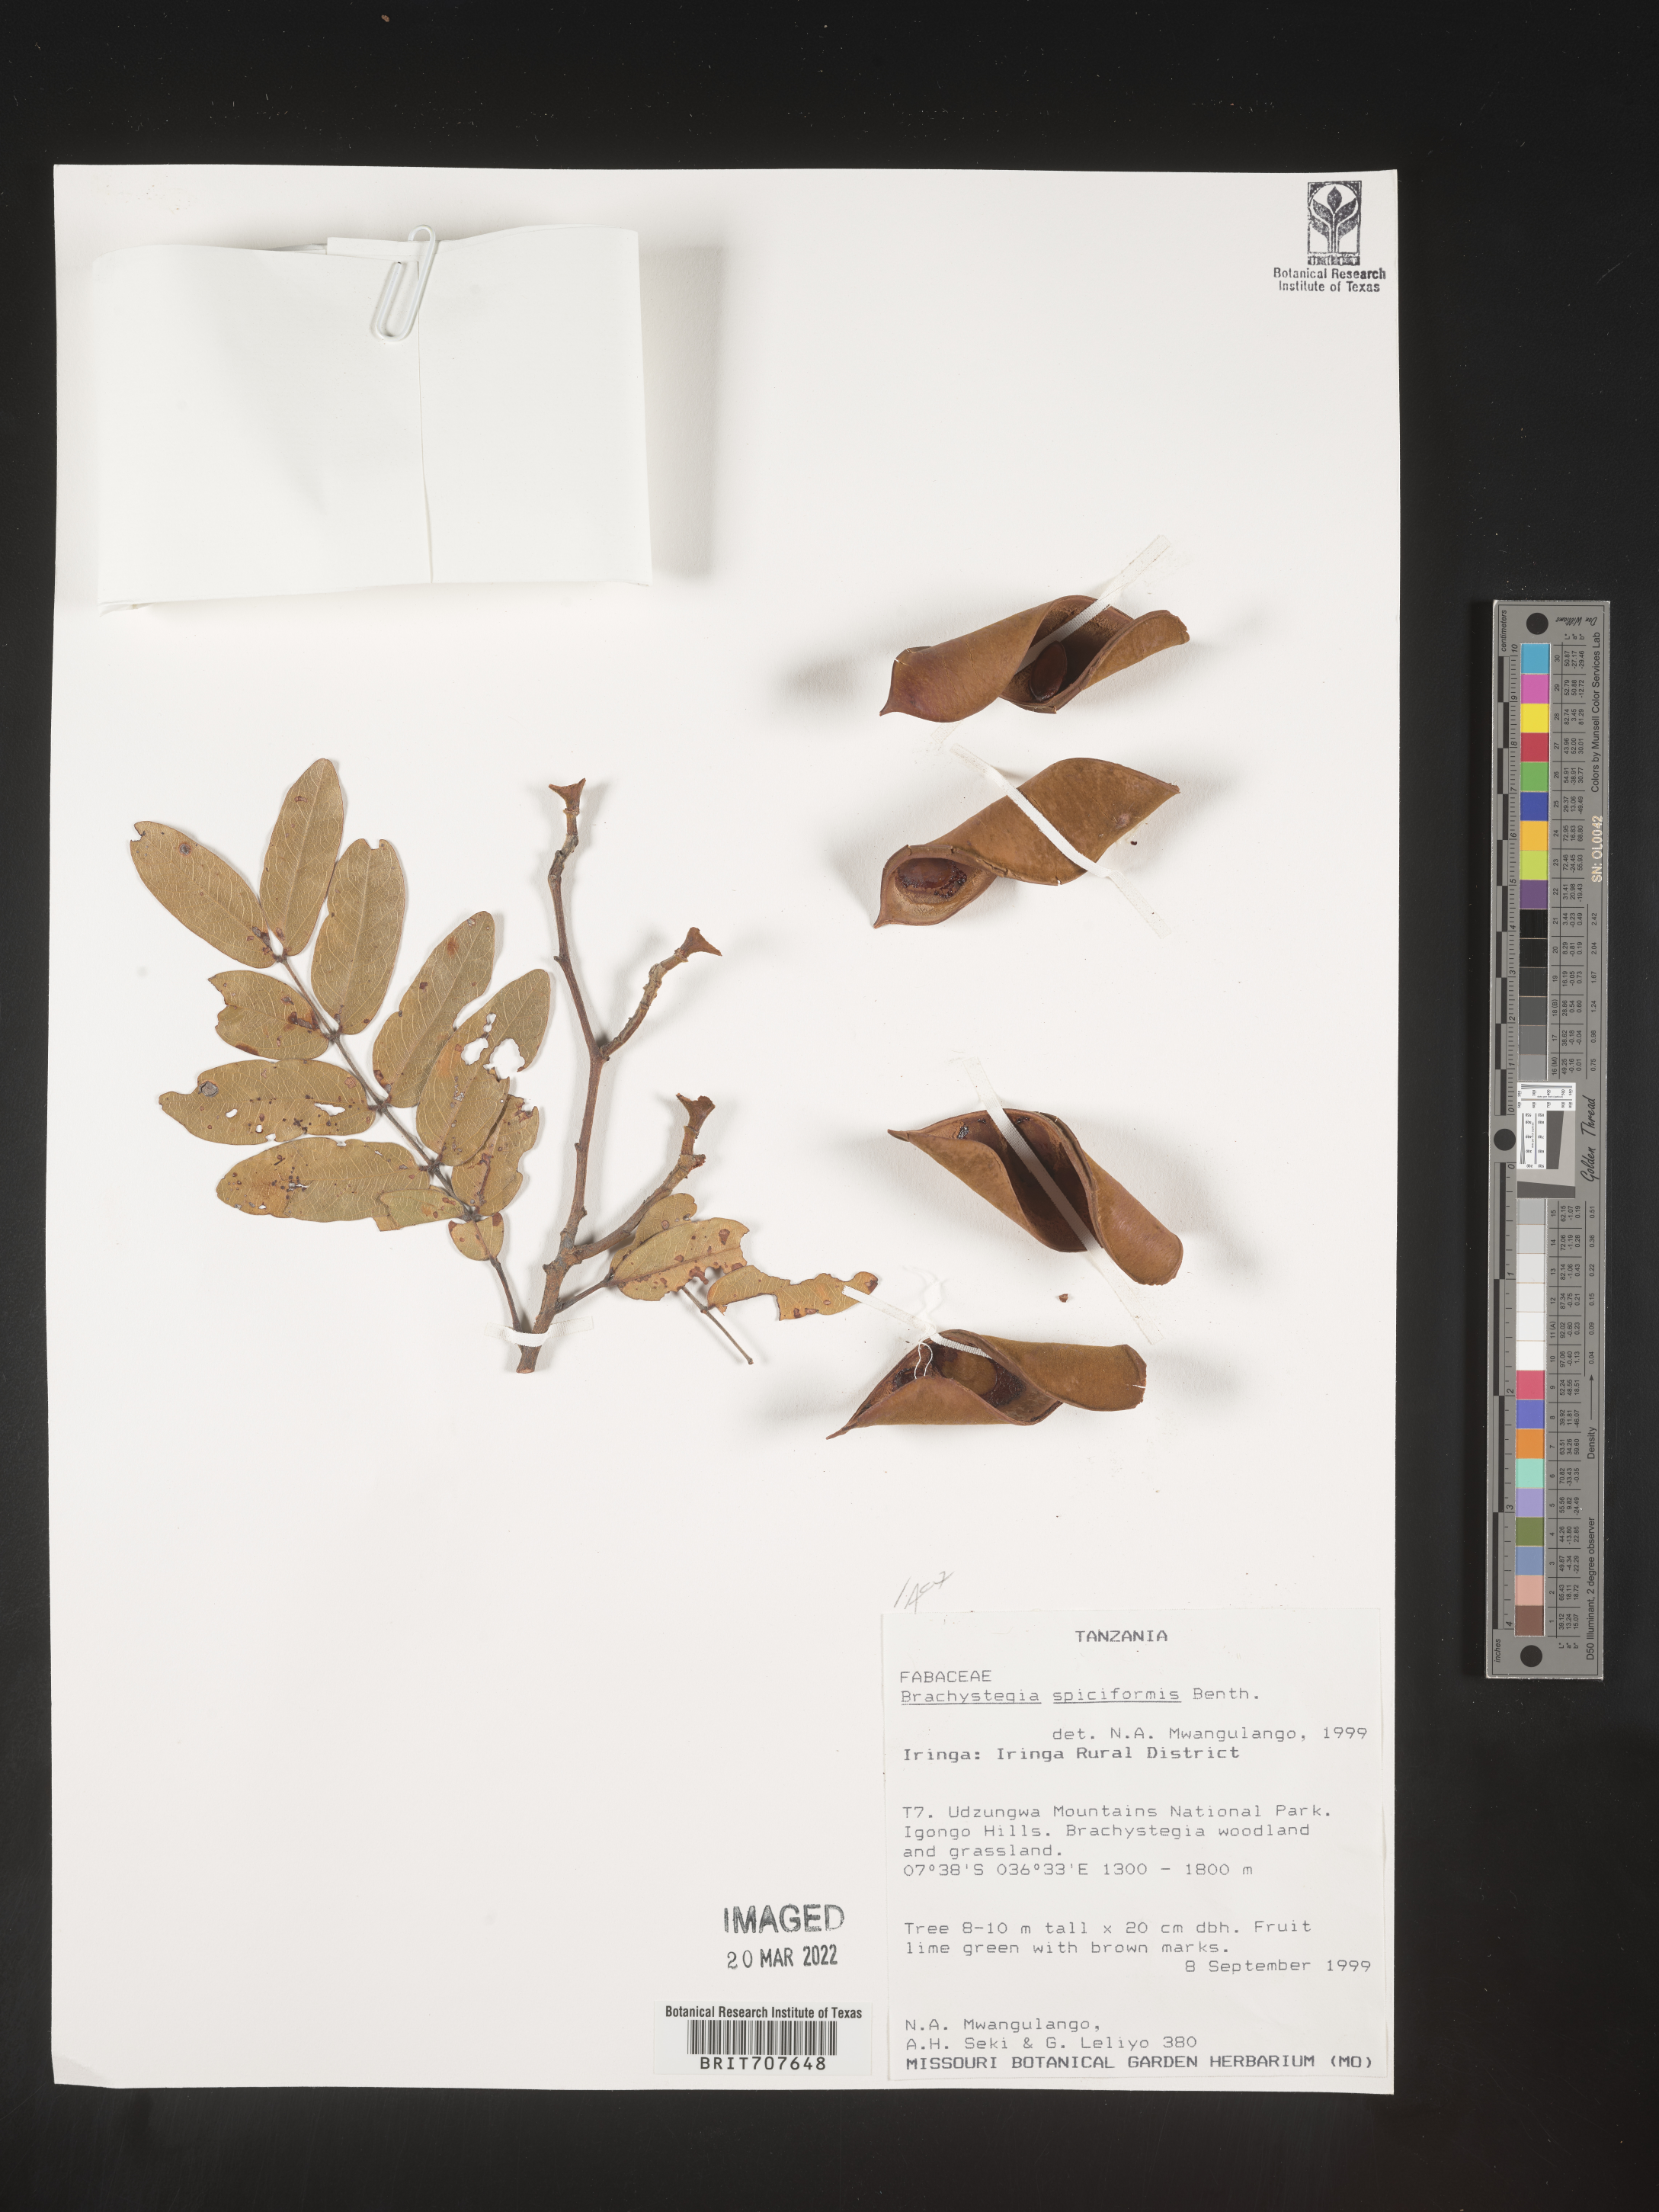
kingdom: Plantae
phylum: Tracheophyta
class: Magnoliopsida
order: Fabales
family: Fabaceae
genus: Brachystegia
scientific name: Brachystegia
